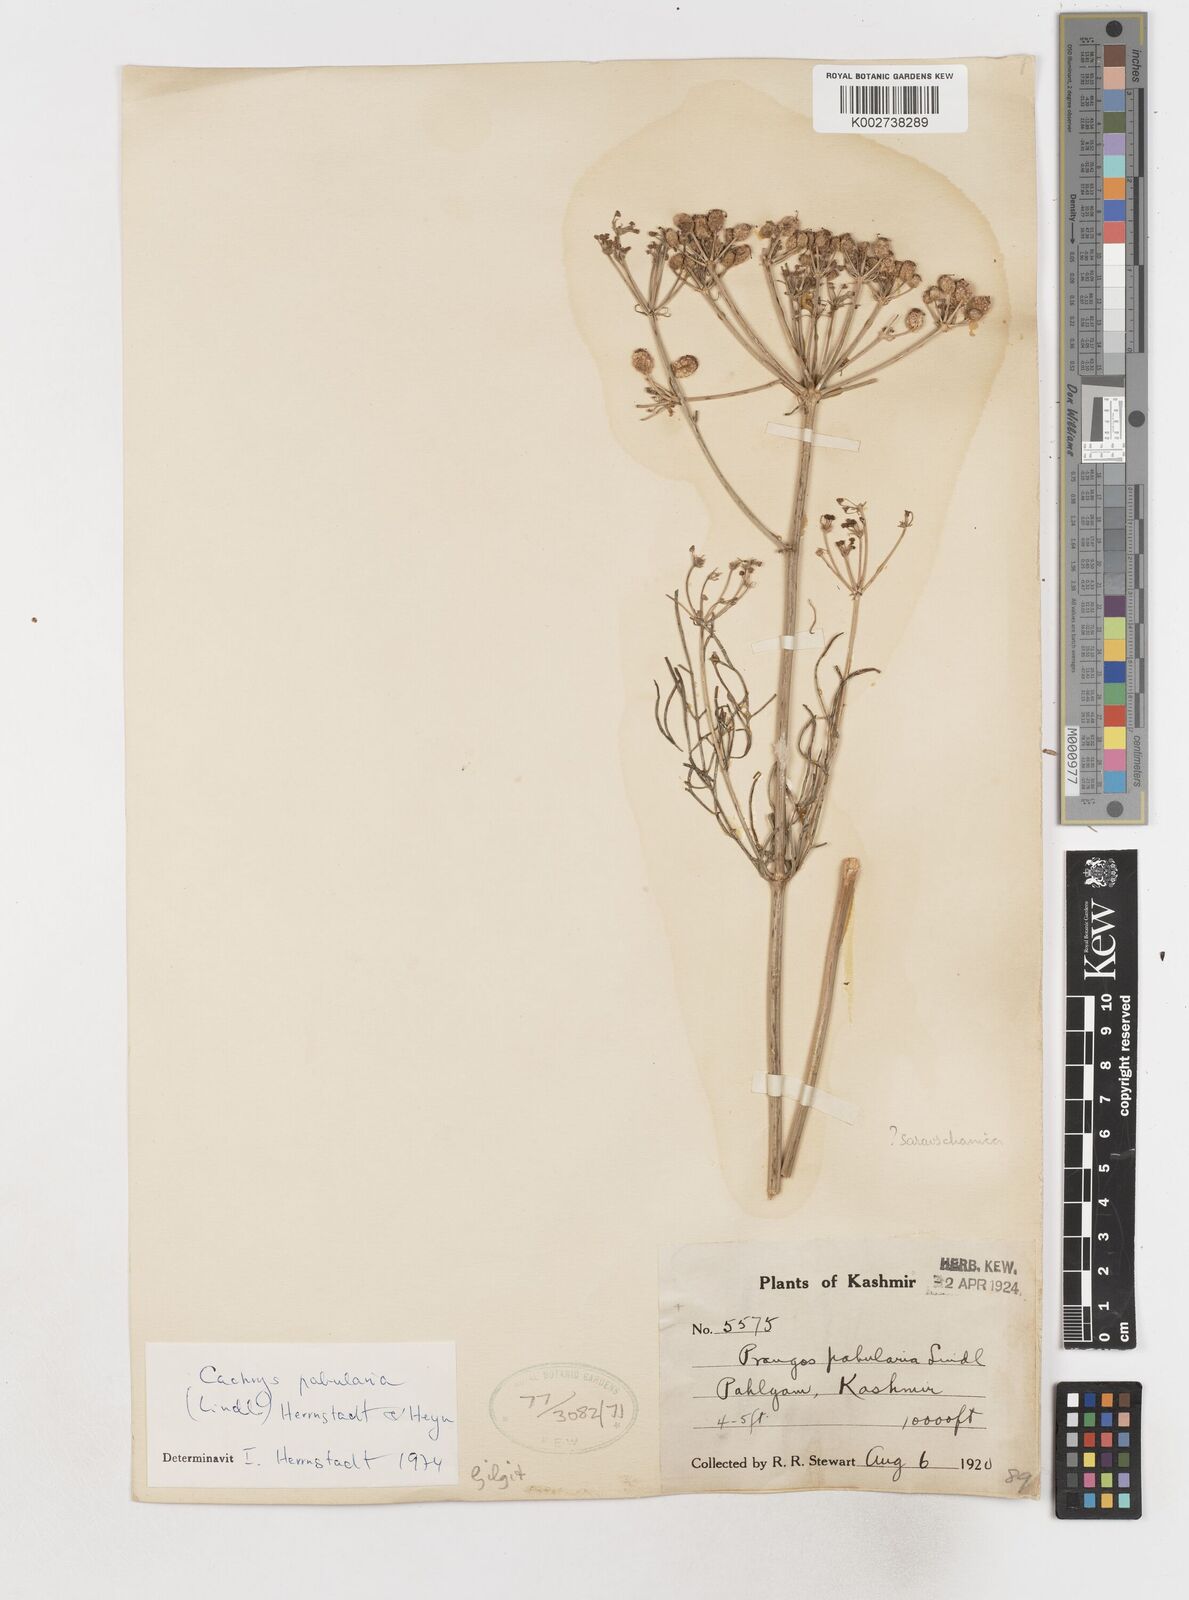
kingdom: Plantae
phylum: Tracheophyta
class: Magnoliopsida
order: Apiales
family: Apiaceae
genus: Prangos
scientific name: Prangos
